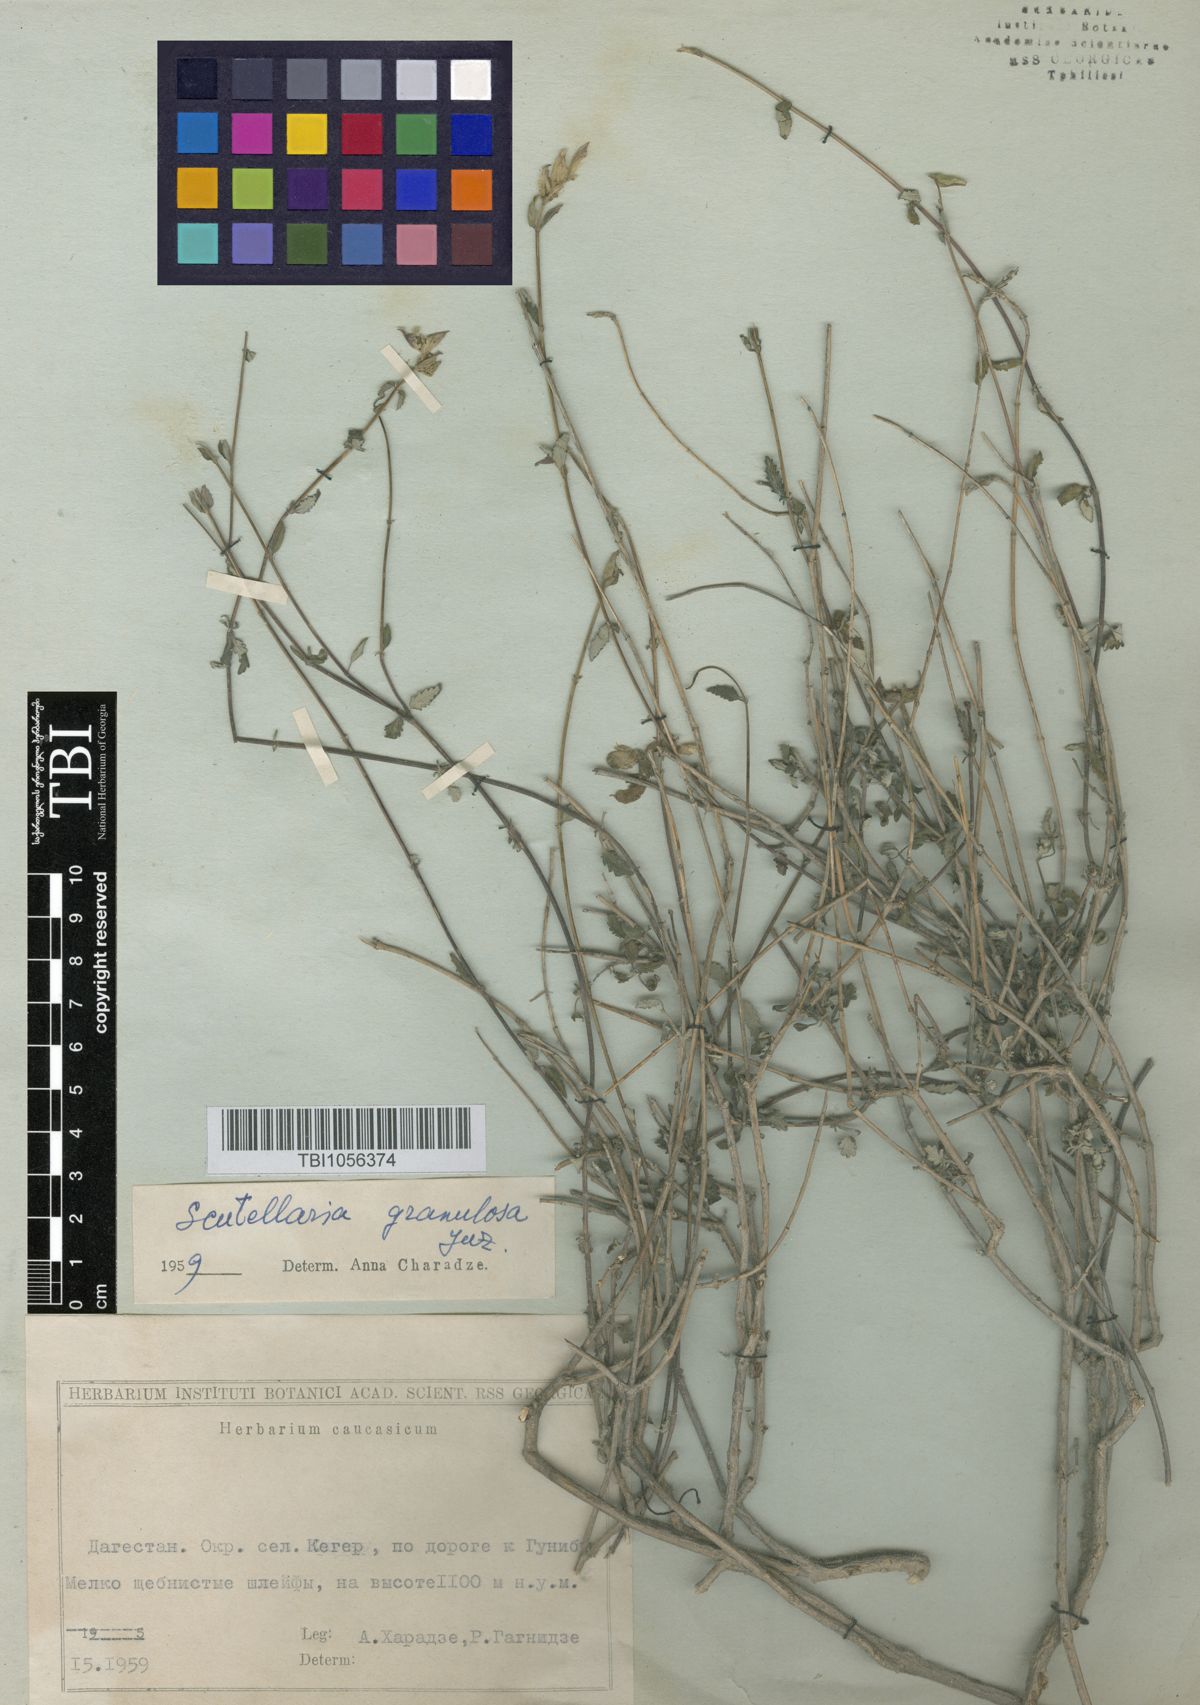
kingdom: Plantae
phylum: Tracheophyta
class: Magnoliopsida
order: Lamiales
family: Lamiaceae
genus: Scutellaria
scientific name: Scutellaria granulosa
